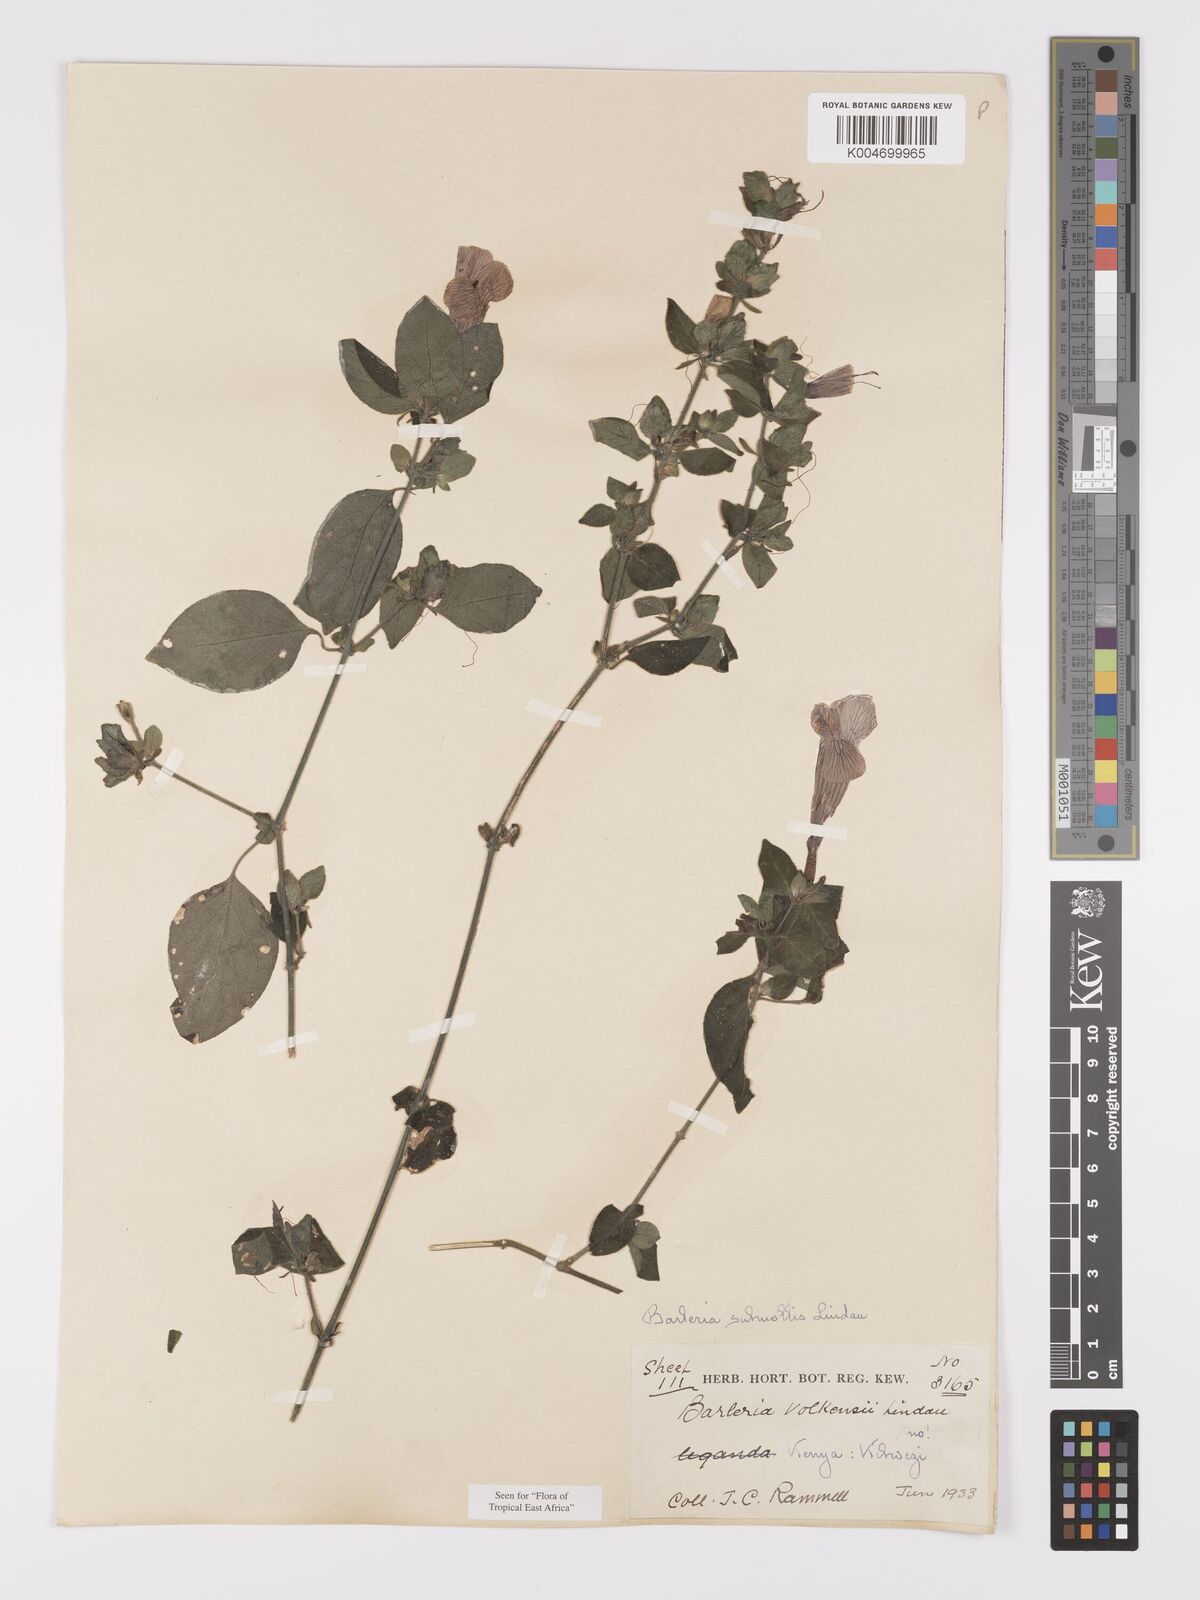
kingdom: Plantae
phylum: Tracheophyta
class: Magnoliopsida
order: Lamiales
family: Acanthaceae
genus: Barleria
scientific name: Barleria submollis
